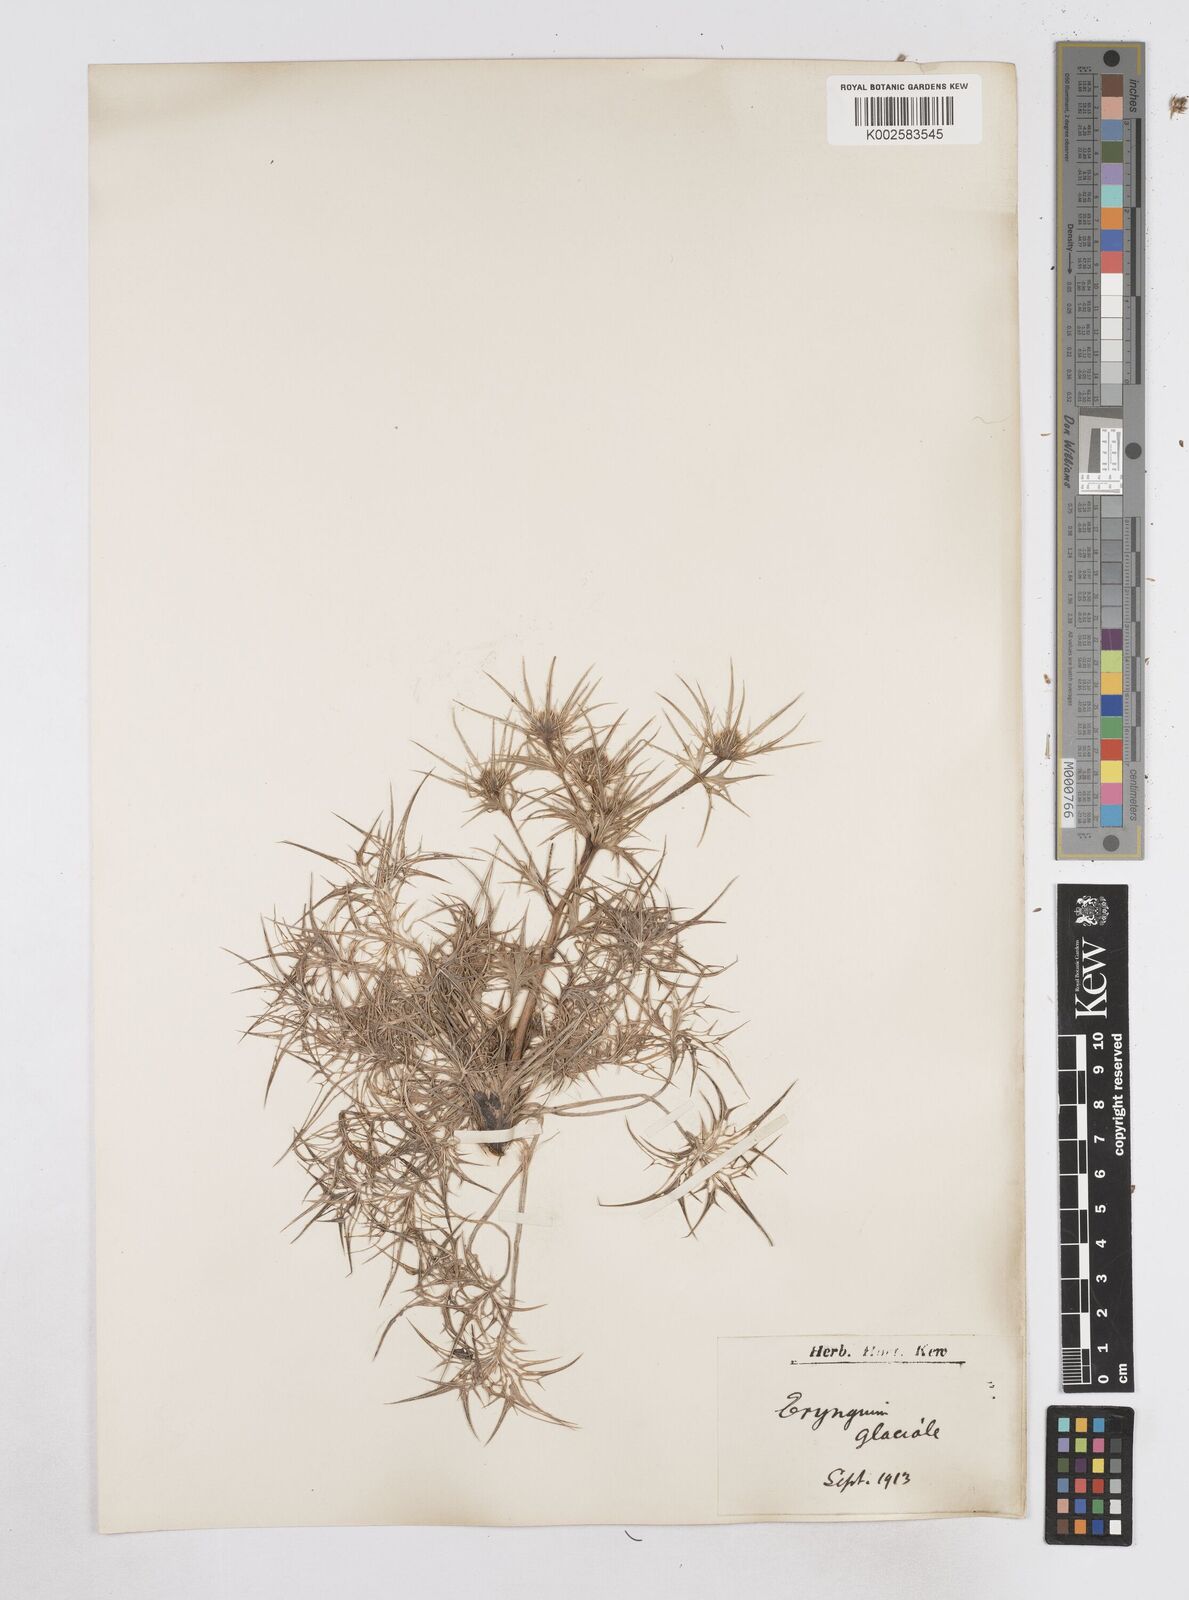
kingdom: Plantae
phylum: Tracheophyta
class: Magnoliopsida
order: Apiales
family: Apiaceae
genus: Eryngium
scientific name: Eryngium glaciale
